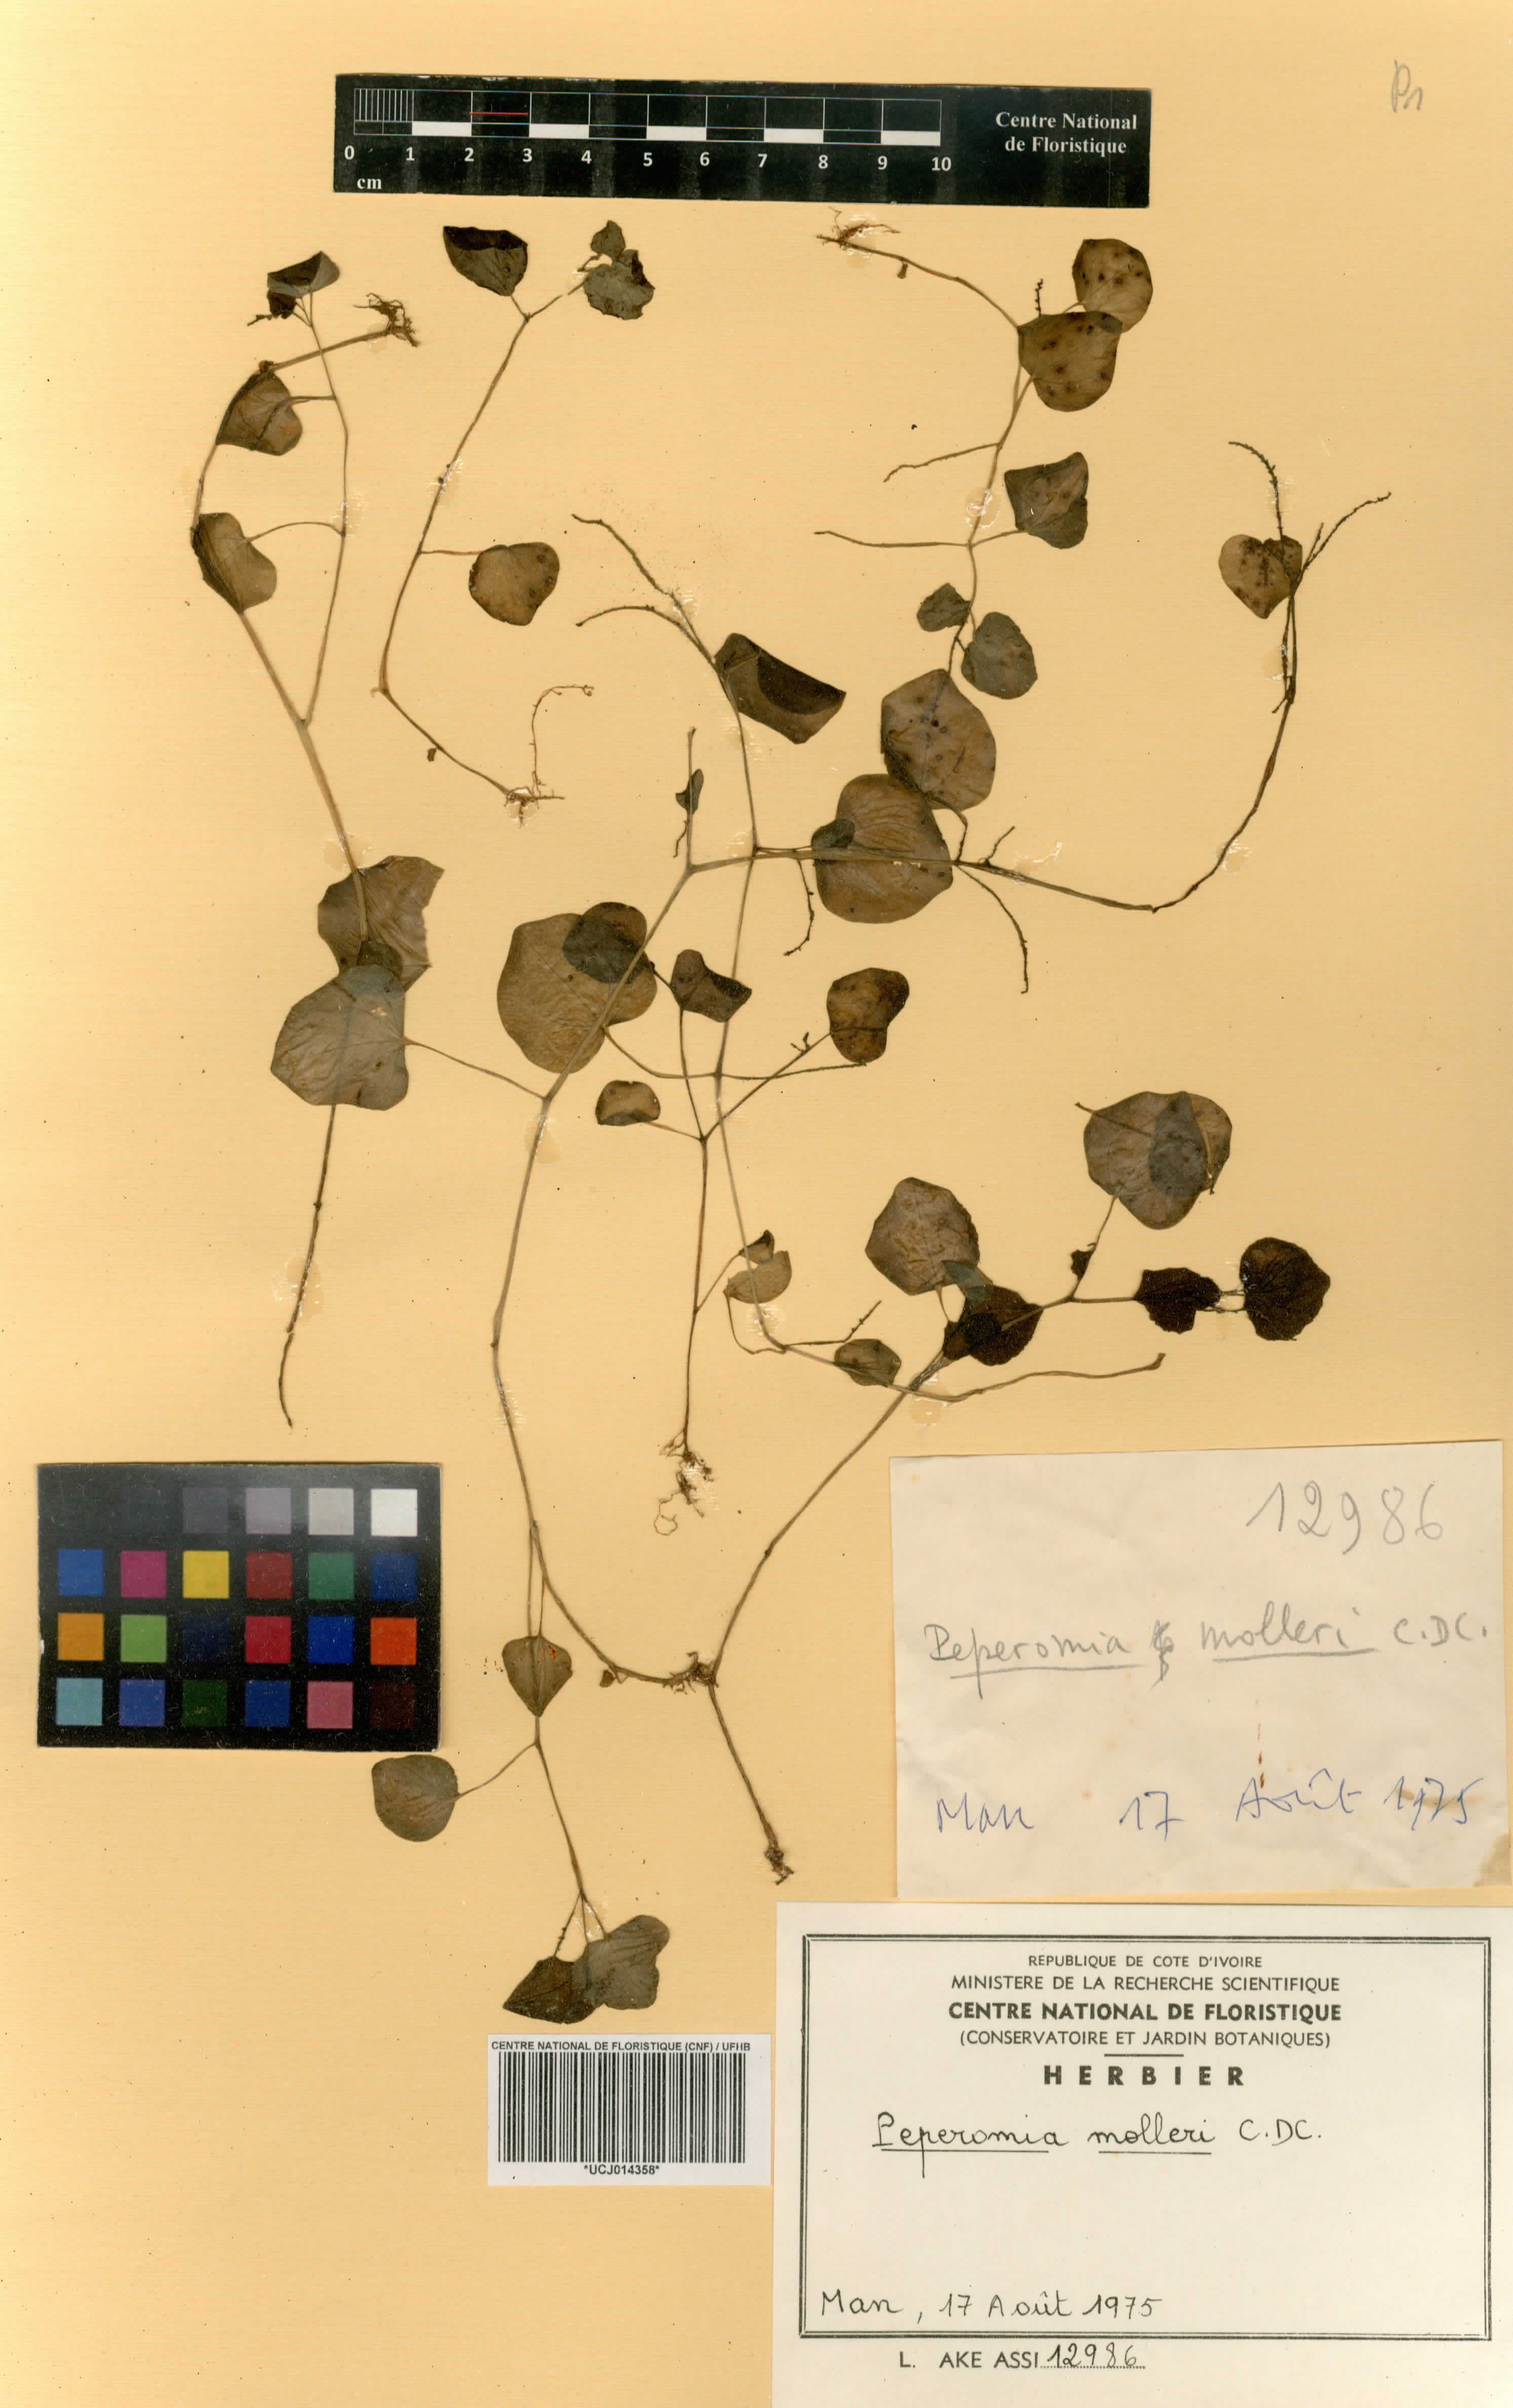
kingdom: Plantae
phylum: Tracheophyta
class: Magnoliopsida
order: Piperales
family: Piperaceae
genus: Peperomia
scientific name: Peperomia molleri
